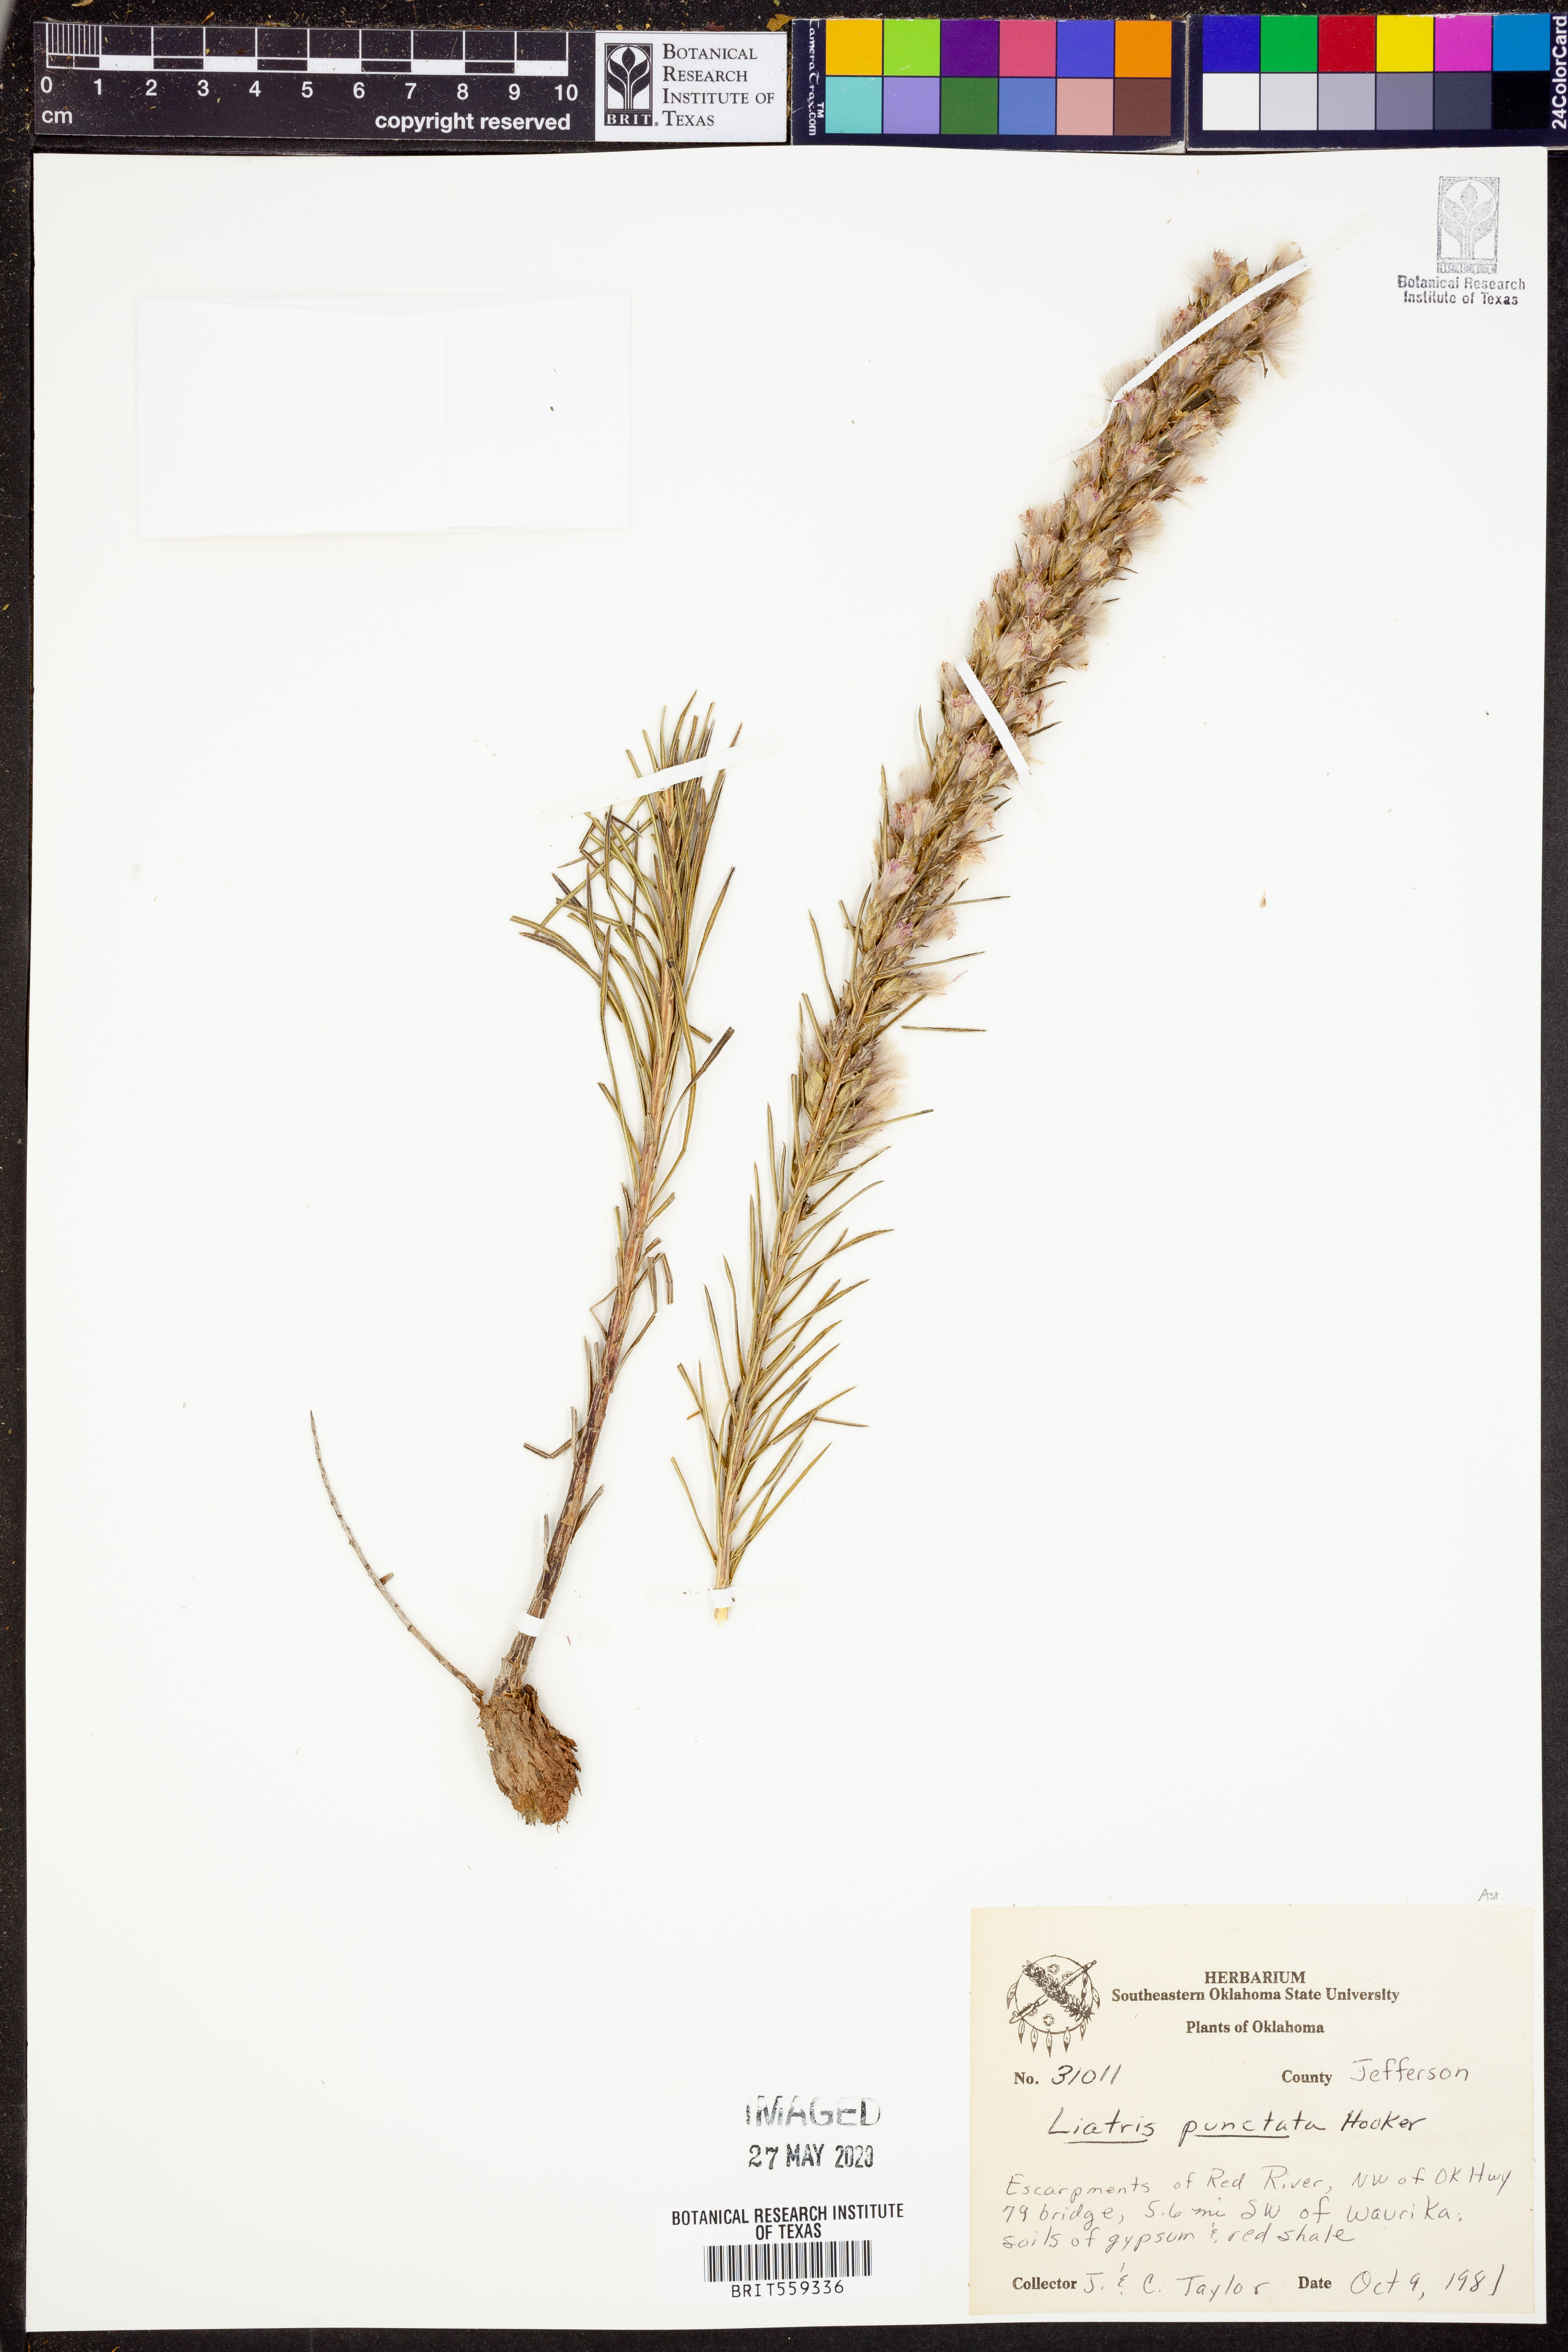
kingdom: Plantae
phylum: Tracheophyta
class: Magnoliopsida
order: Asterales
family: Asteraceae
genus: Liatris
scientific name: Liatris punctata
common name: Dotted gayfeather
